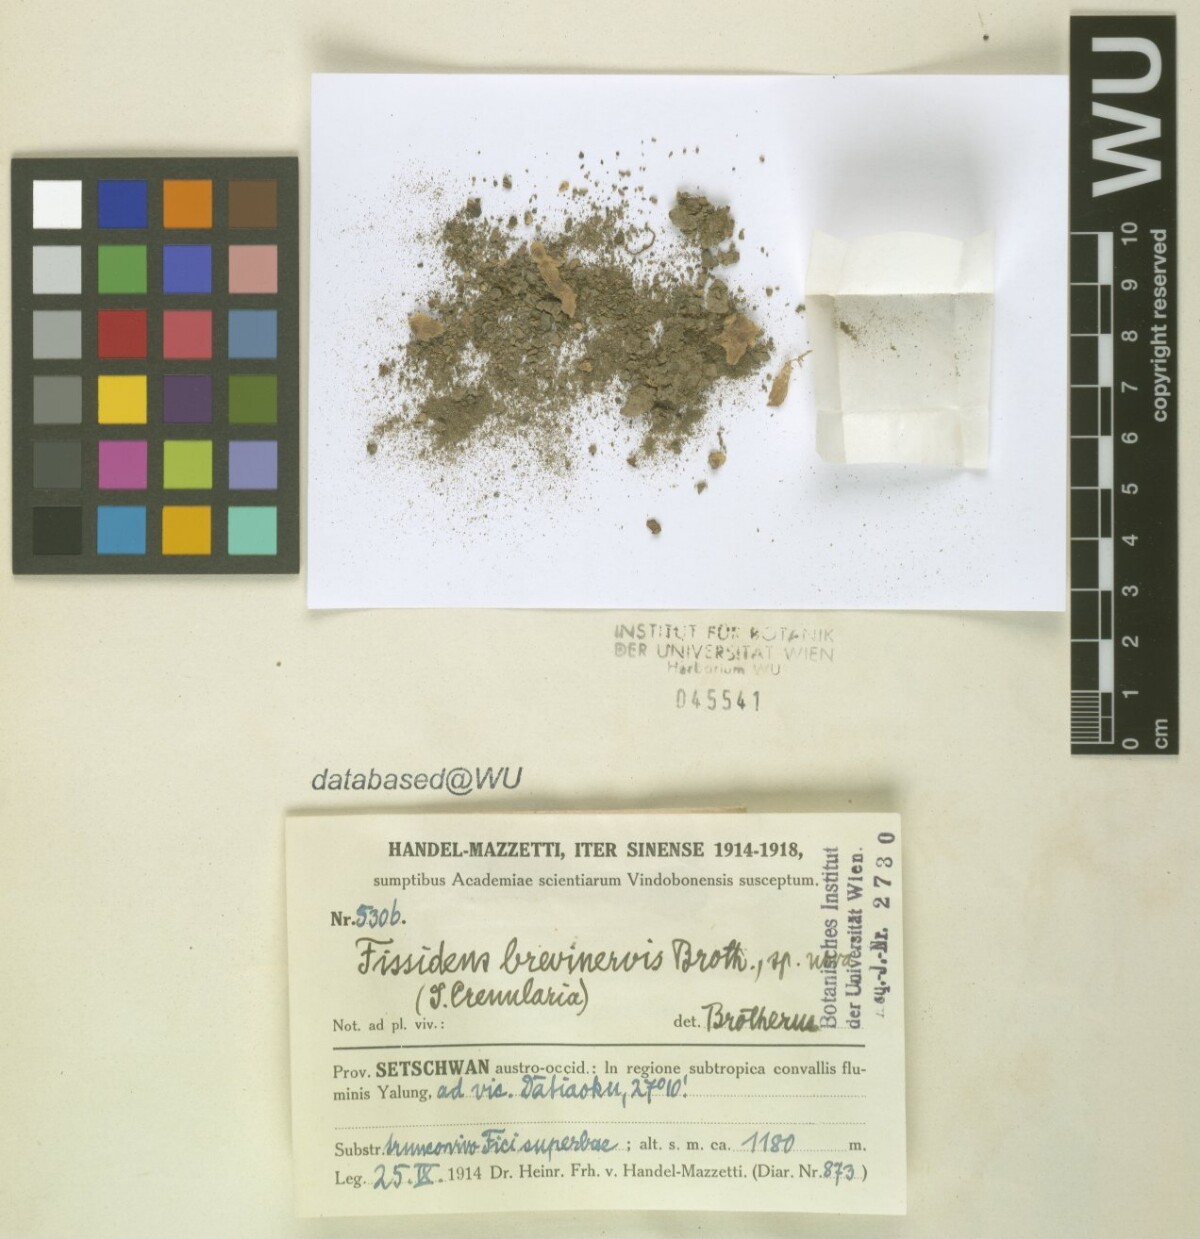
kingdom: Plantae
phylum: Bryophyta
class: Bryopsida
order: Dicranales
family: Fissidentaceae
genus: Fissidens
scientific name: Fissidens brevinervis
